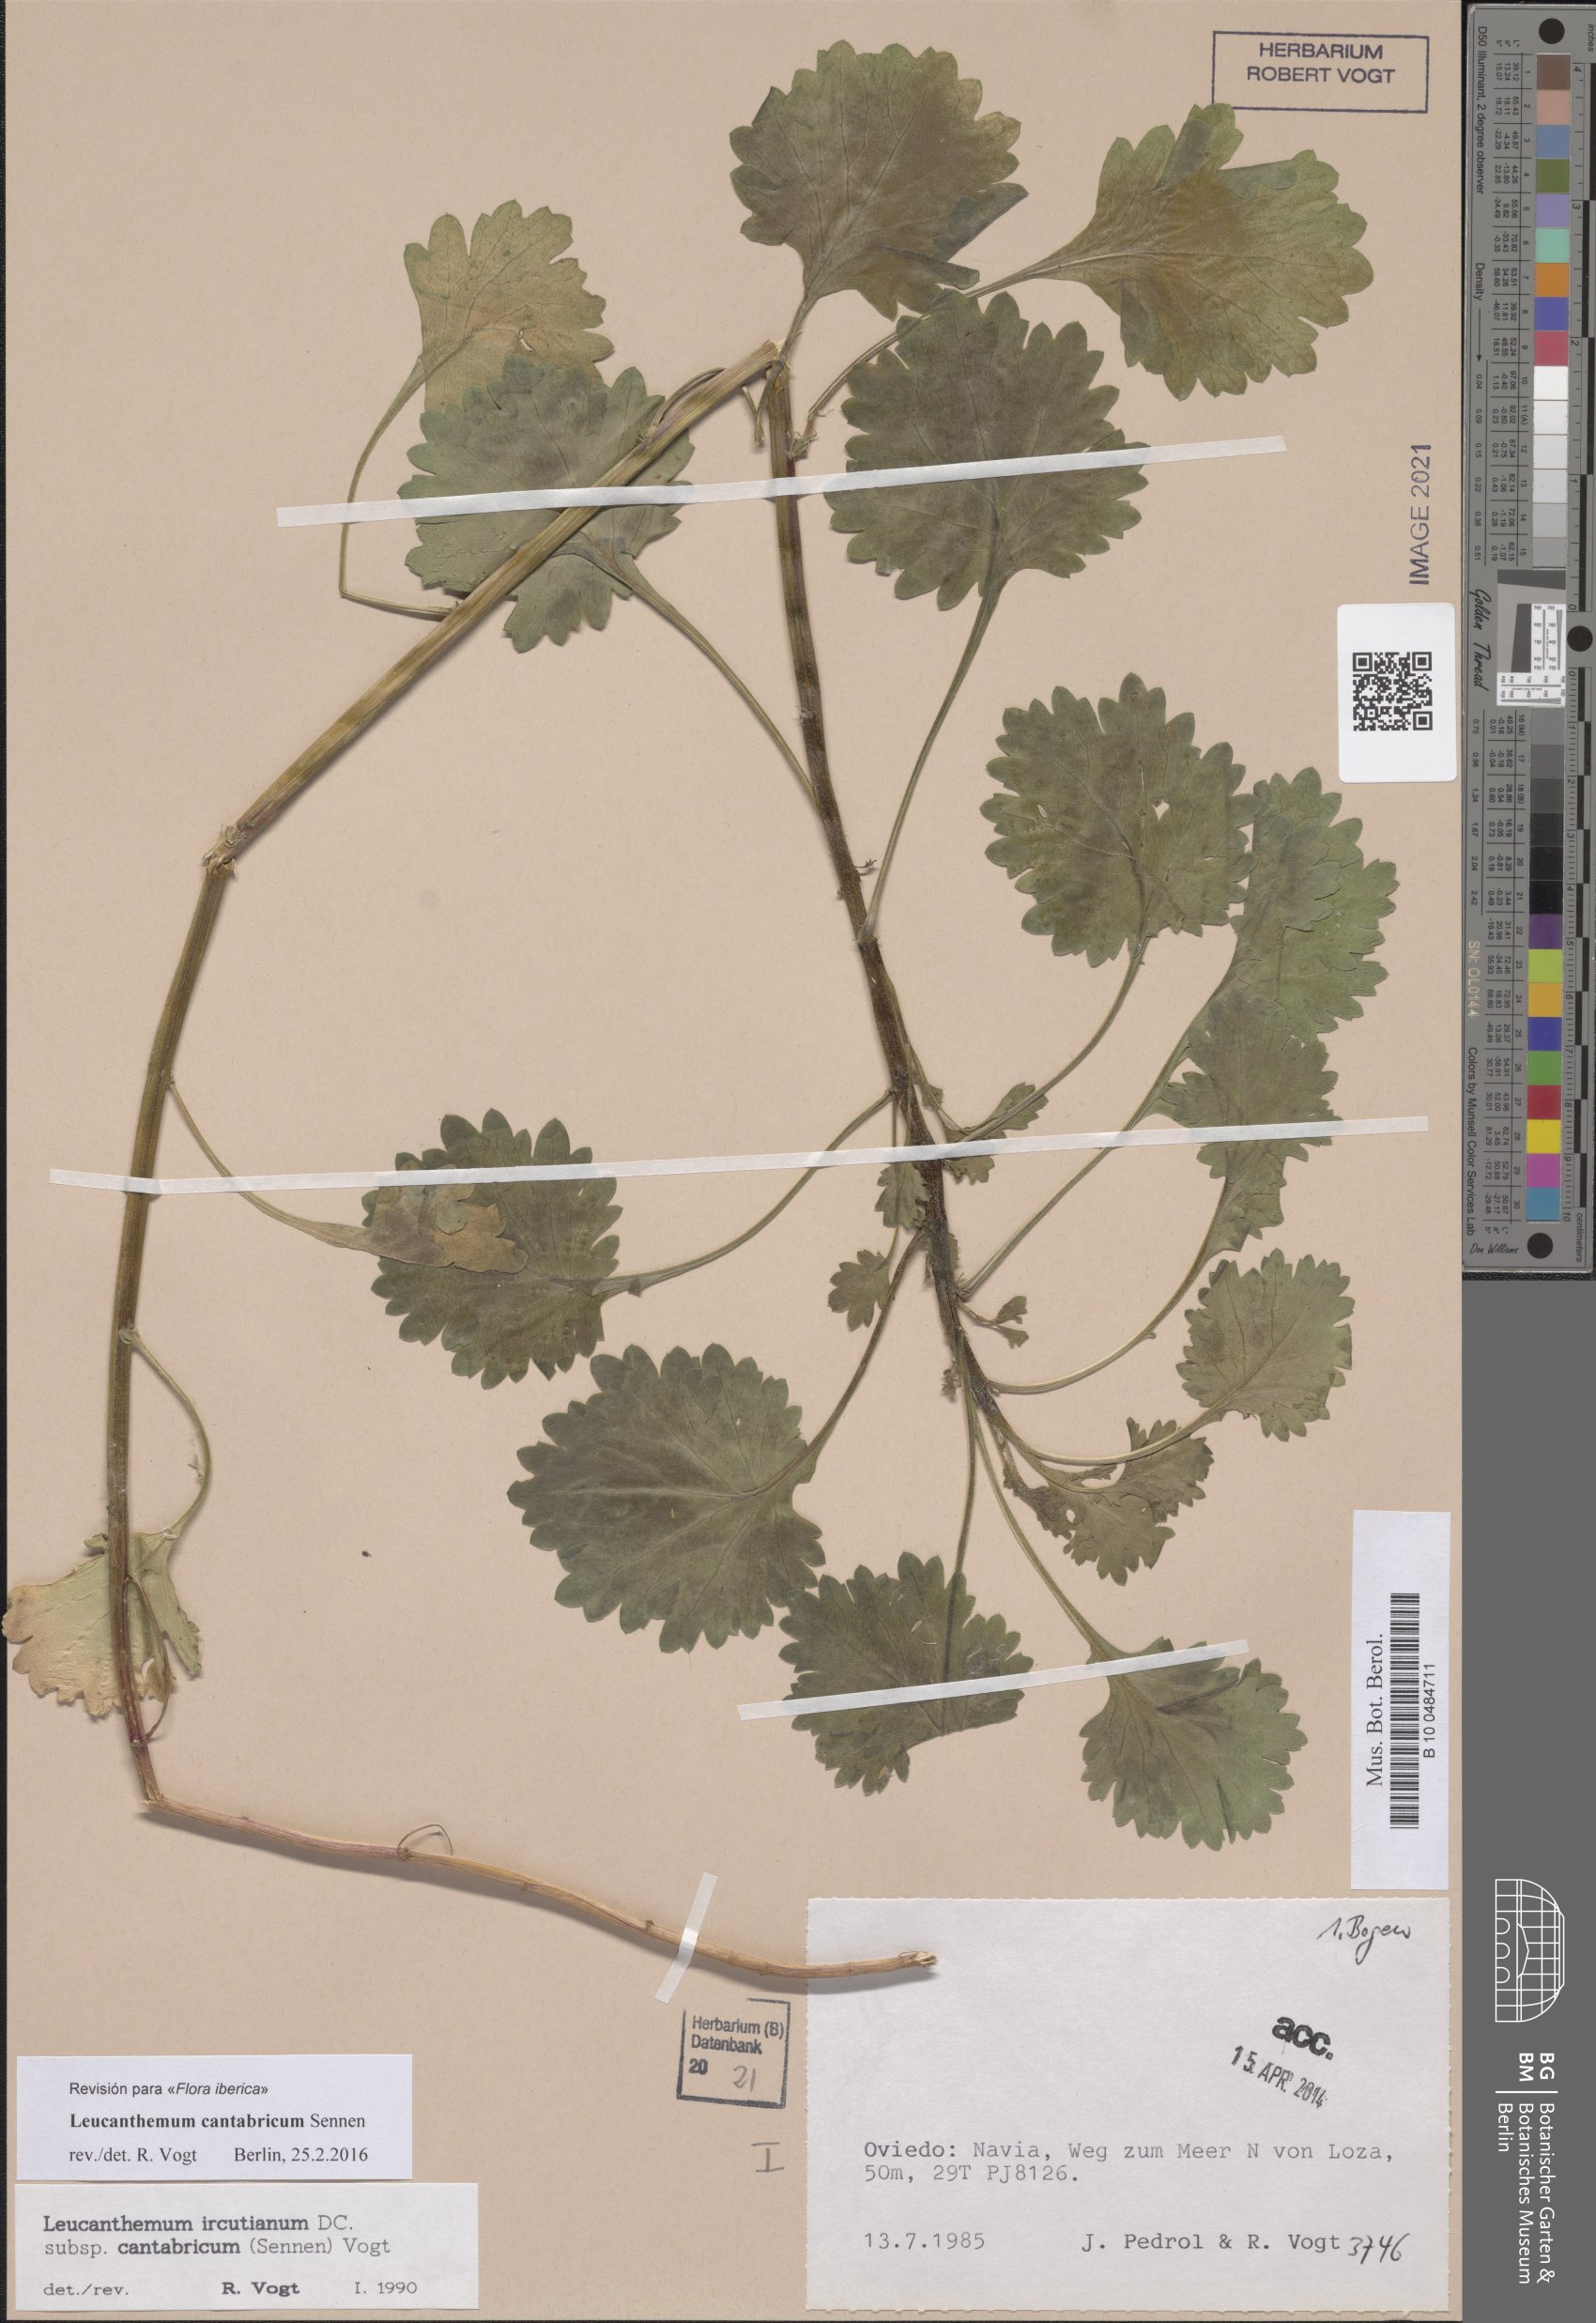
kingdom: Plantae
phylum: Tracheophyta
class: Magnoliopsida
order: Asterales
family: Asteraceae
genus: Leucanthemum
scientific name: Leucanthemum cantabricum
